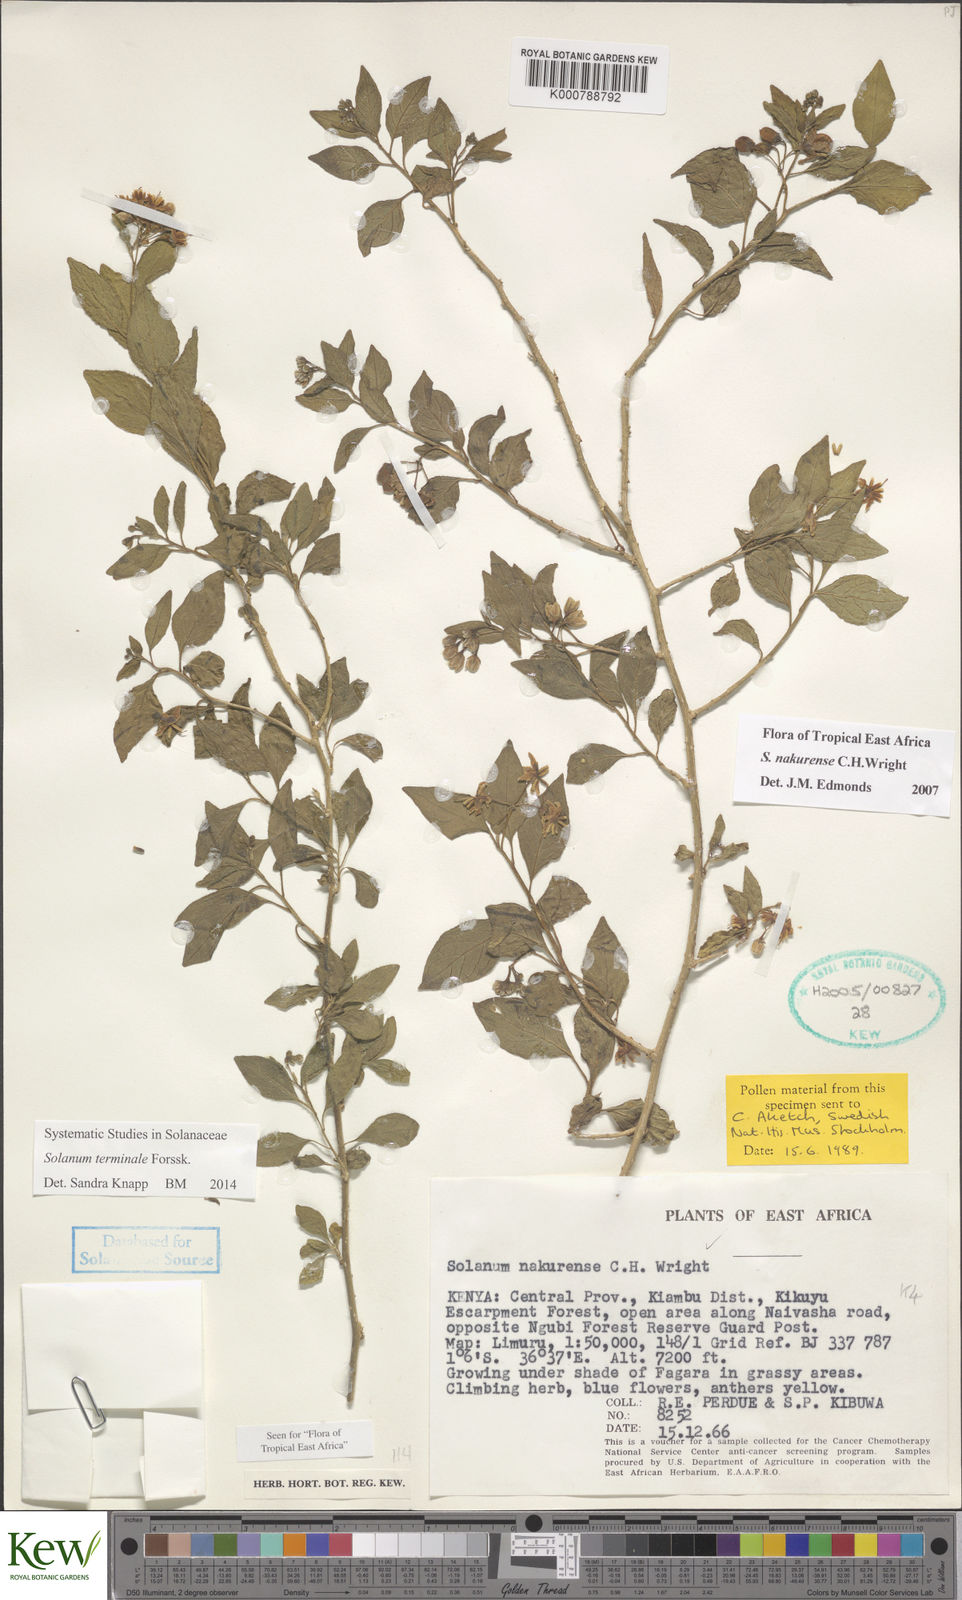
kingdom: Plantae
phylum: Tracheophyta
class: Magnoliopsida
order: Solanales
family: Solanaceae
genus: Solanum
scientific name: Solanum terminale
